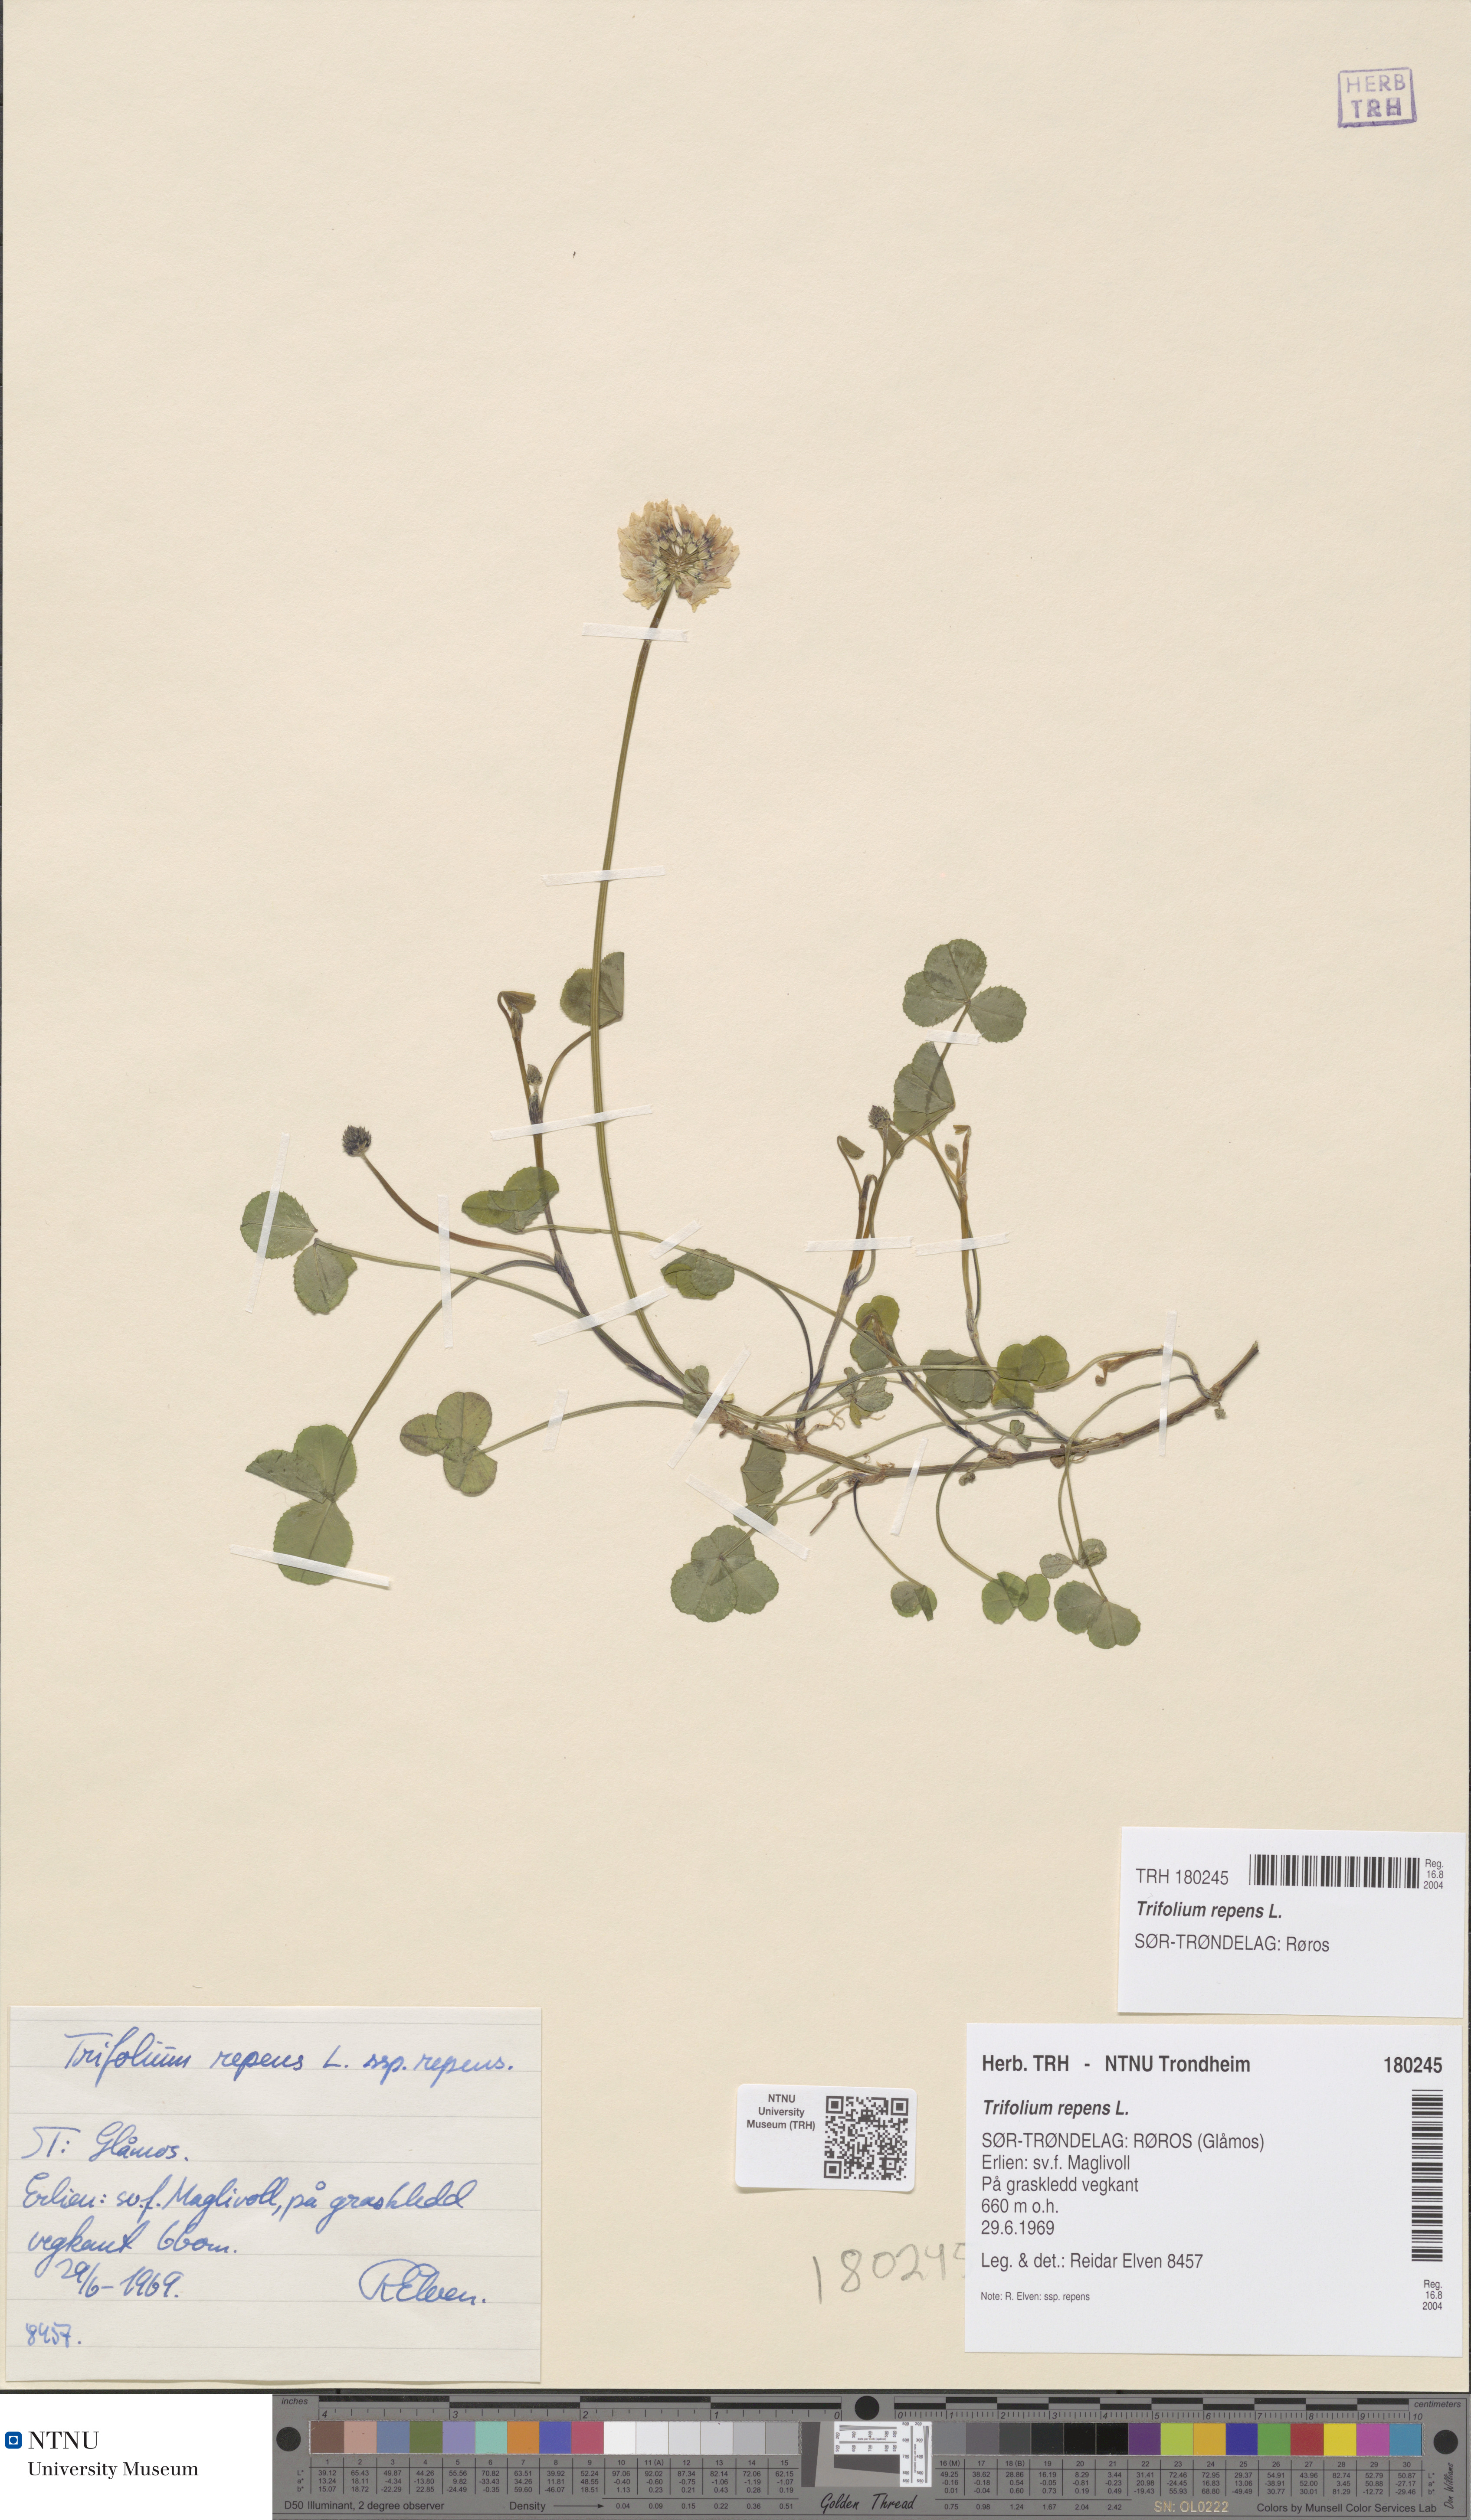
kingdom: Plantae
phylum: Tracheophyta
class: Magnoliopsida
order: Fabales
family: Fabaceae
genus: Trifolium
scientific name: Trifolium repens
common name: White clover
